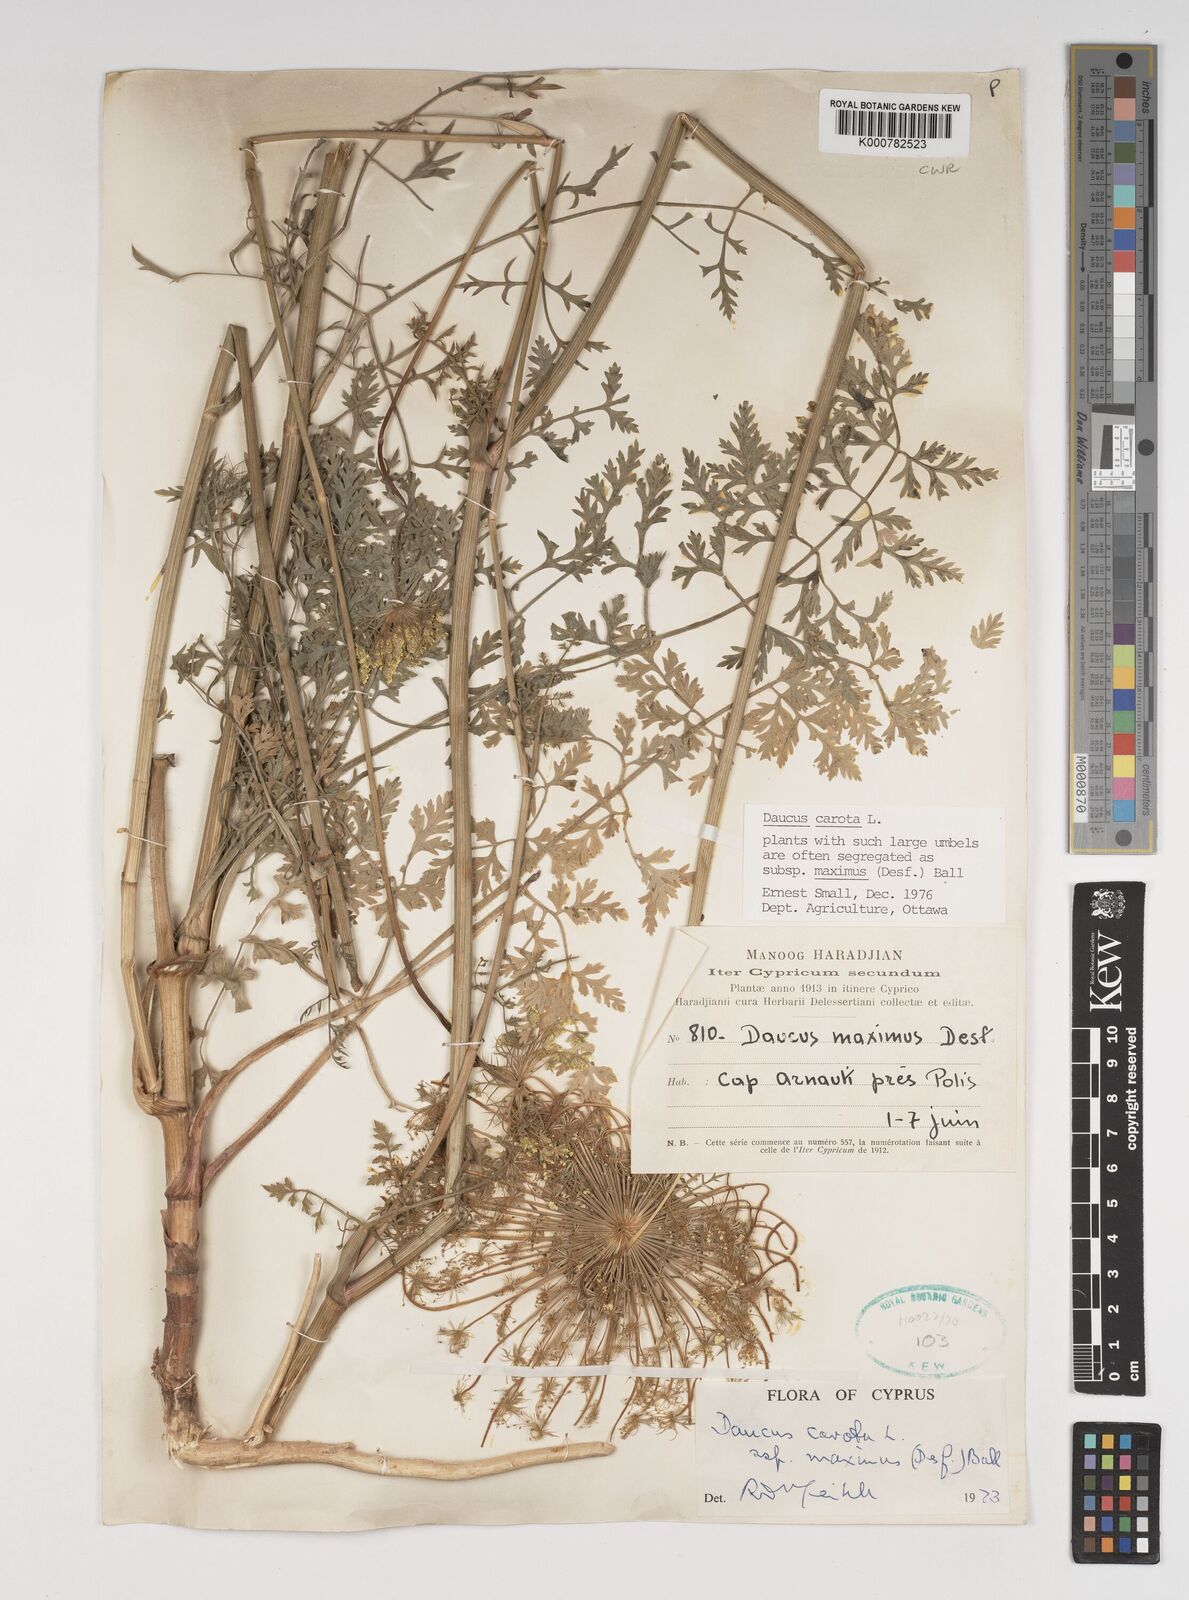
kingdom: Plantae
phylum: Tracheophyta
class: Magnoliopsida
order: Apiales
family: Apiaceae
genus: Daucus
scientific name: Daucus carota
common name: Wild carrot
